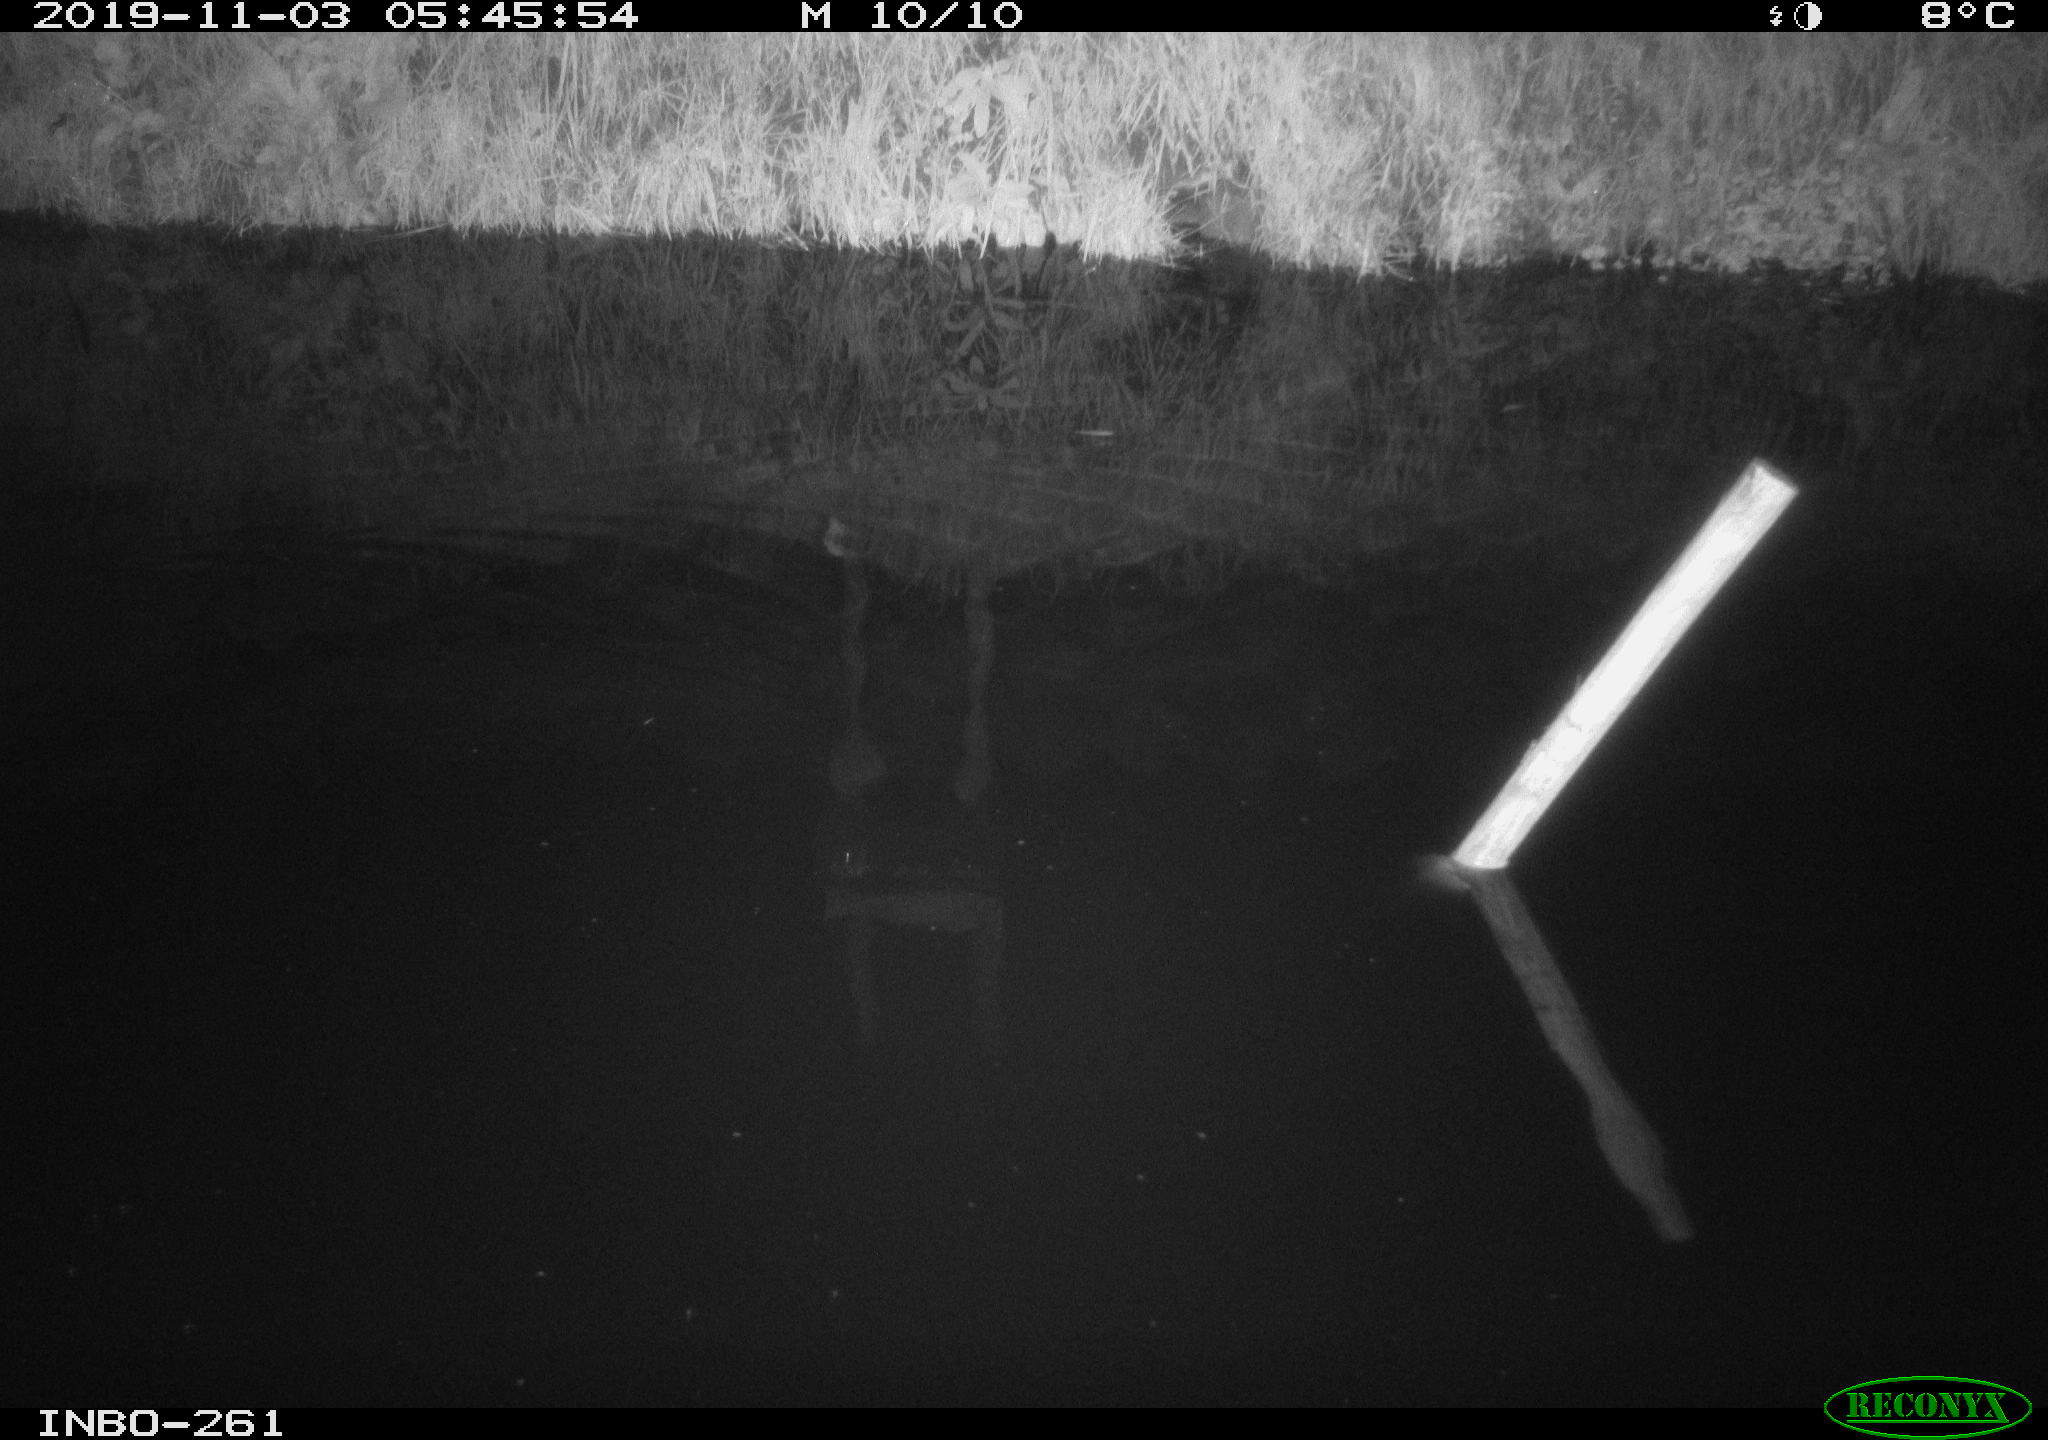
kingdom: Animalia
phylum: Chordata
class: Aves
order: Gruiformes
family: Rallidae
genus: Gallinula
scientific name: Gallinula chloropus
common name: Common moorhen
